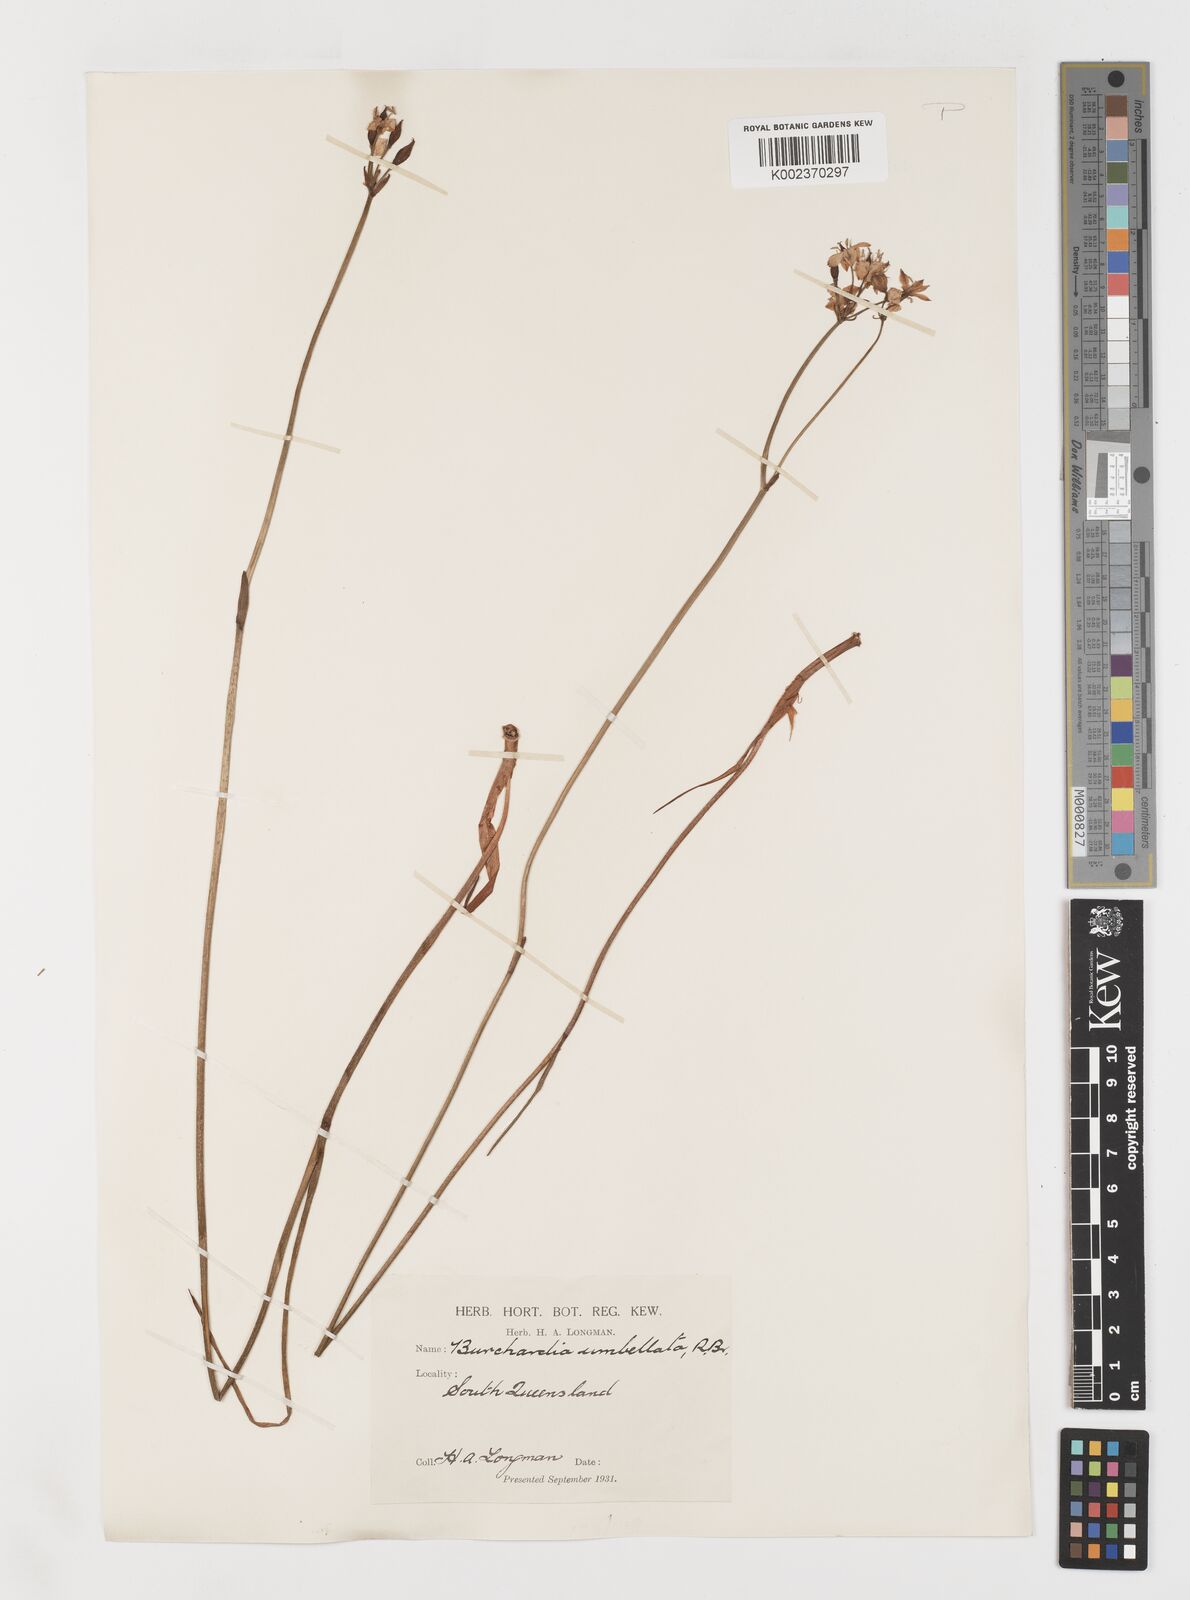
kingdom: Plantae
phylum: Tracheophyta
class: Liliopsida
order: Liliales
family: Colchicaceae
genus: Burchardia
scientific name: Burchardia umbellata
